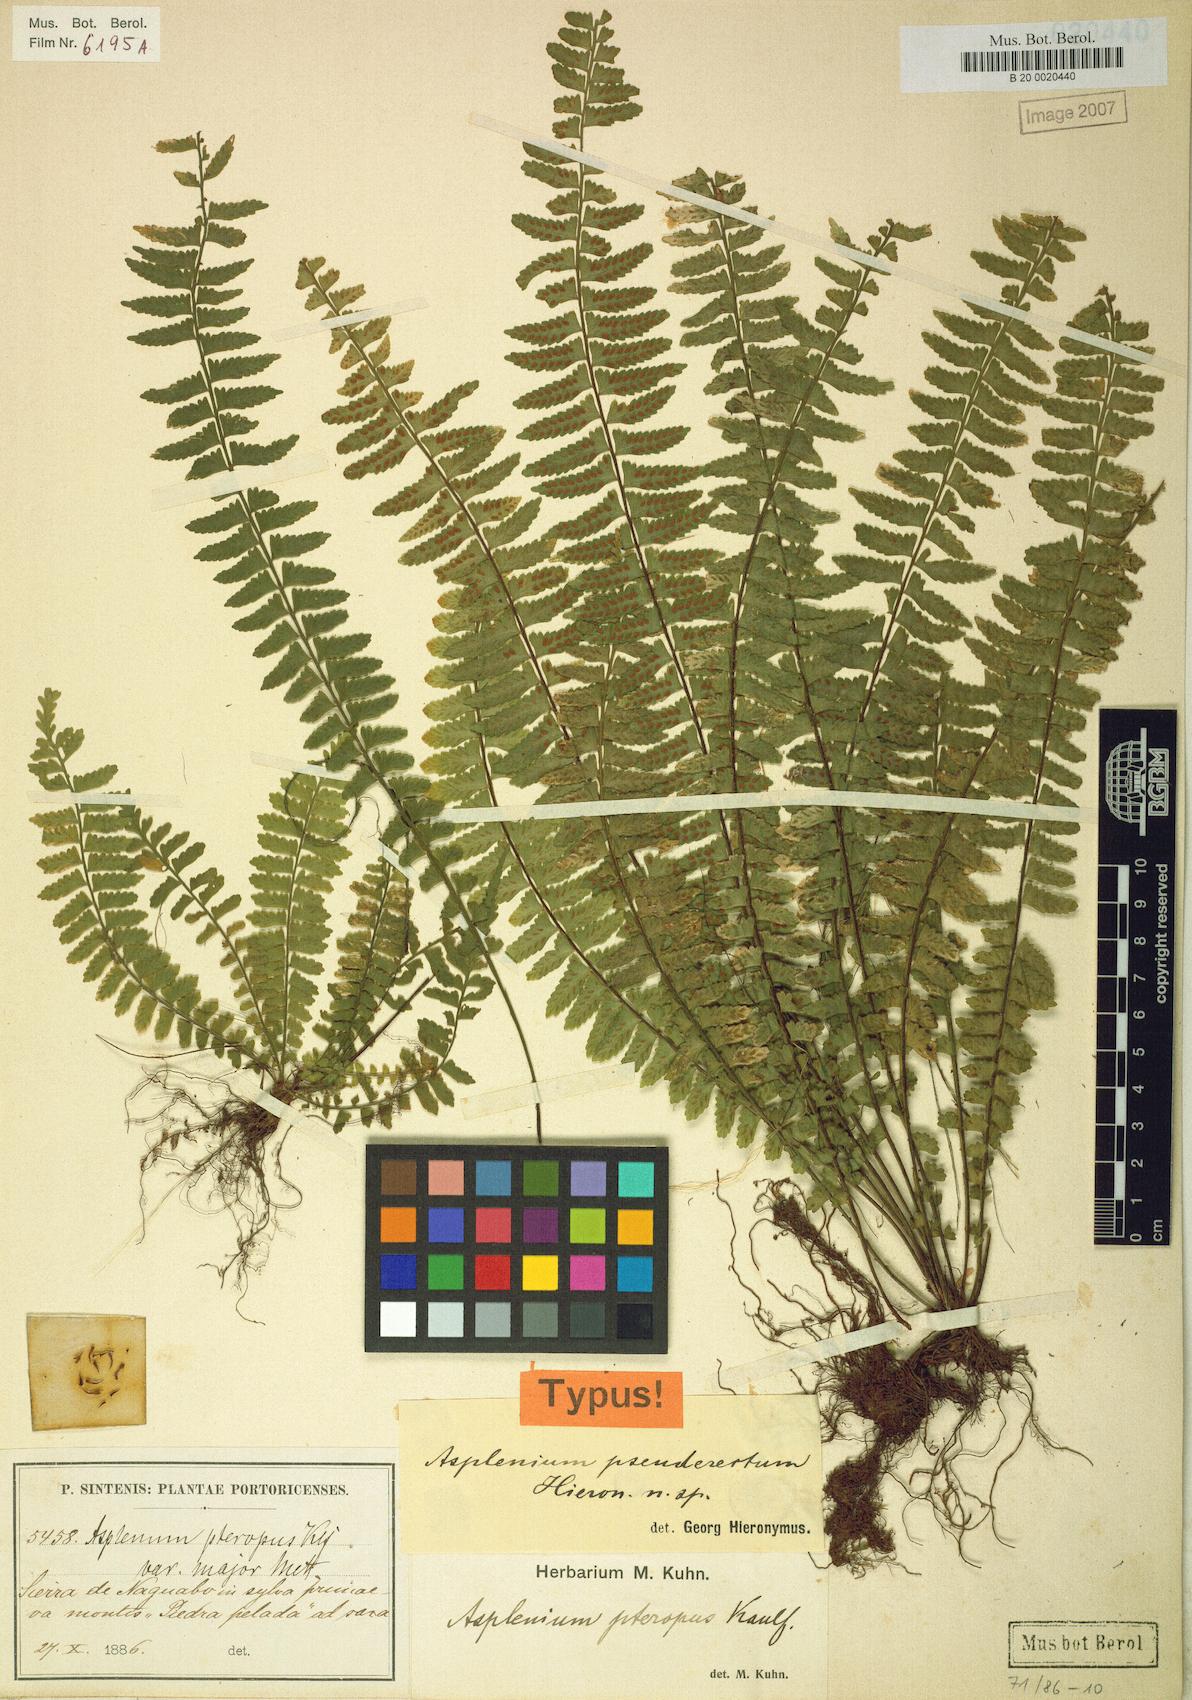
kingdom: Plantae
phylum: Tracheophyta
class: Polypodiopsida
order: Polypodiales
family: Aspleniaceae
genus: Asplenium
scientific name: Asplenium pseuderectum
